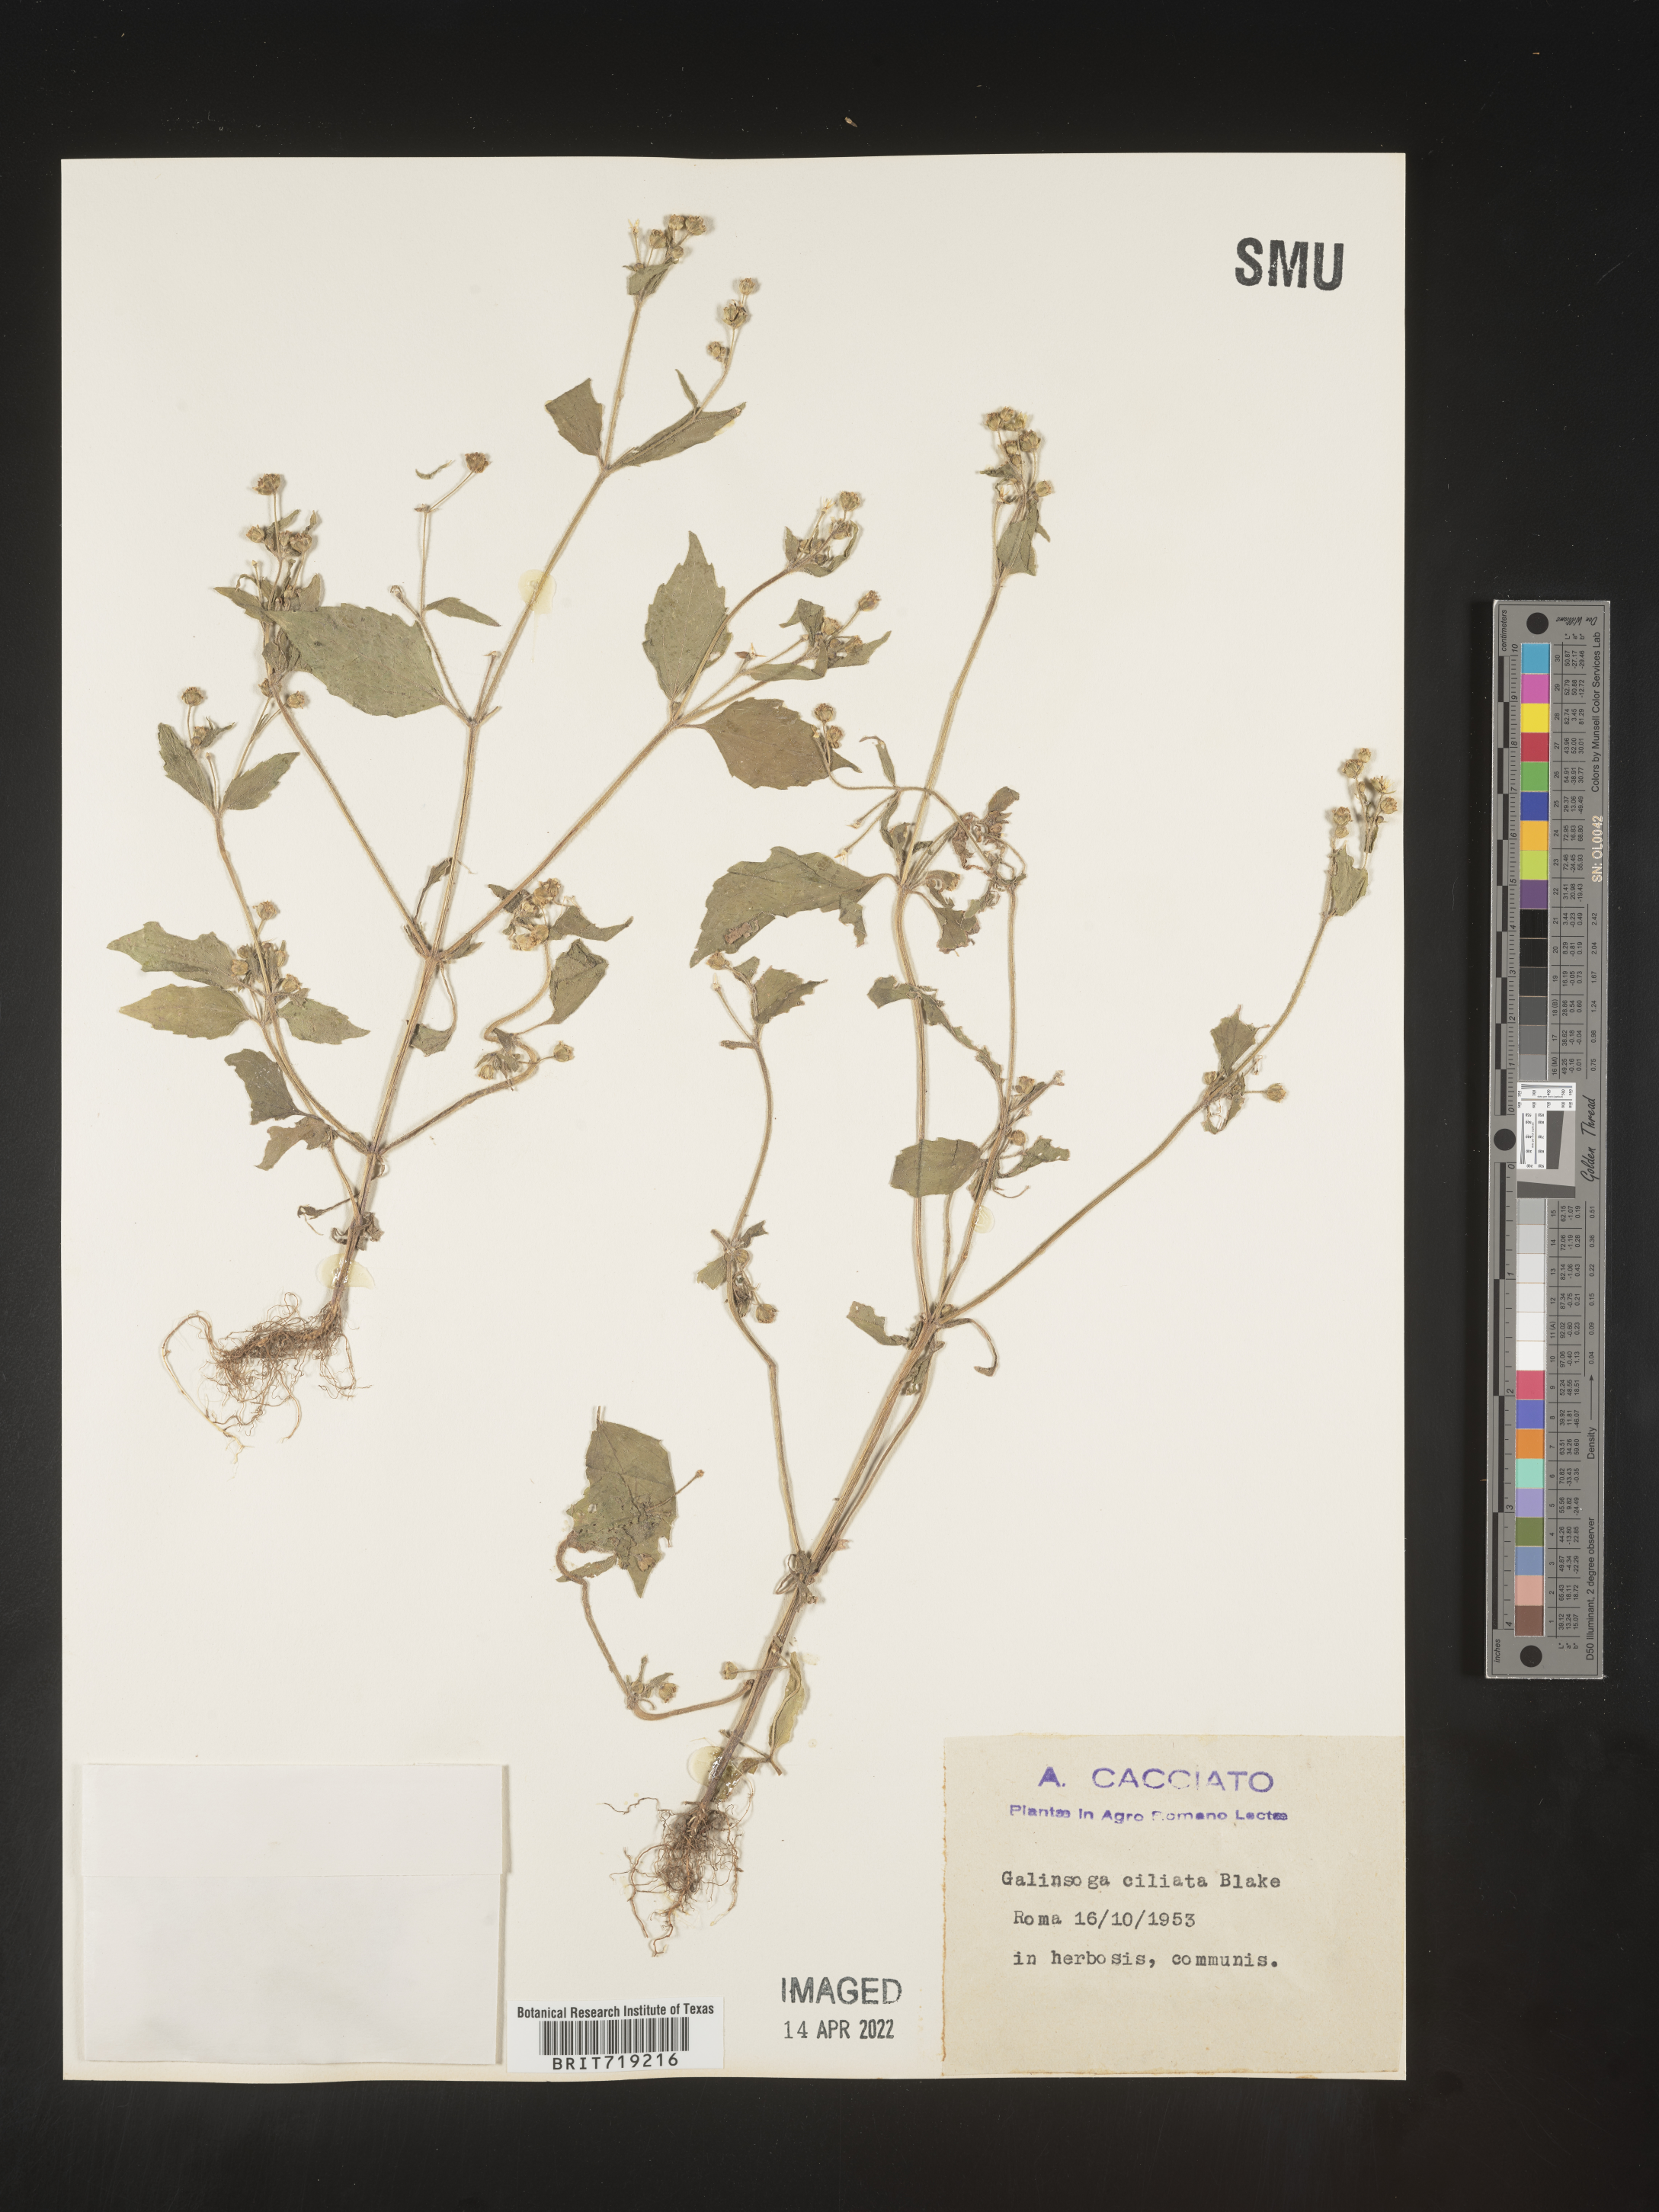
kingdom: Plantae
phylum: Tracheophyta
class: Magnoliopsida
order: Asterales
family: Asteraceae
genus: Galinsoga
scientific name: Galinsoga
